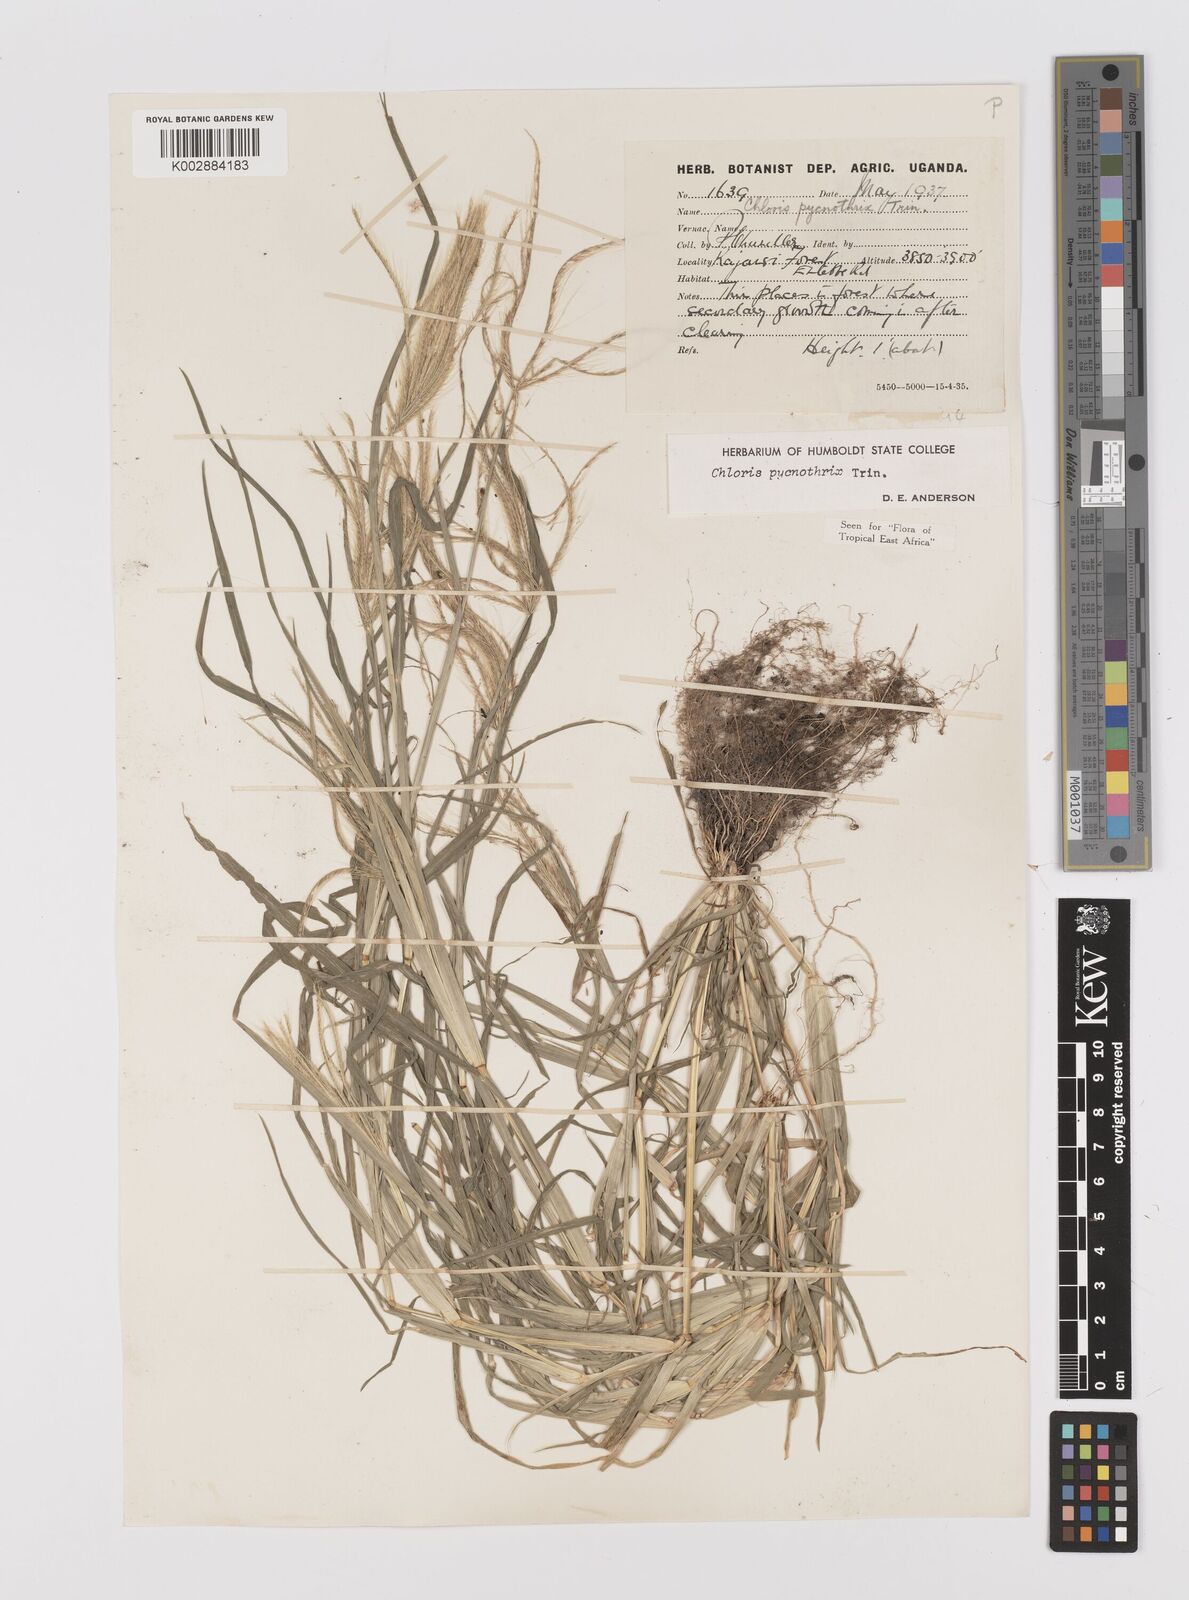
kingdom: Plantae
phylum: Tracheophyta
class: Liliopsida
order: Poales
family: Poaceae
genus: Chloris
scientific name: Chloris pycnothrix
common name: Spiderweb chloris
